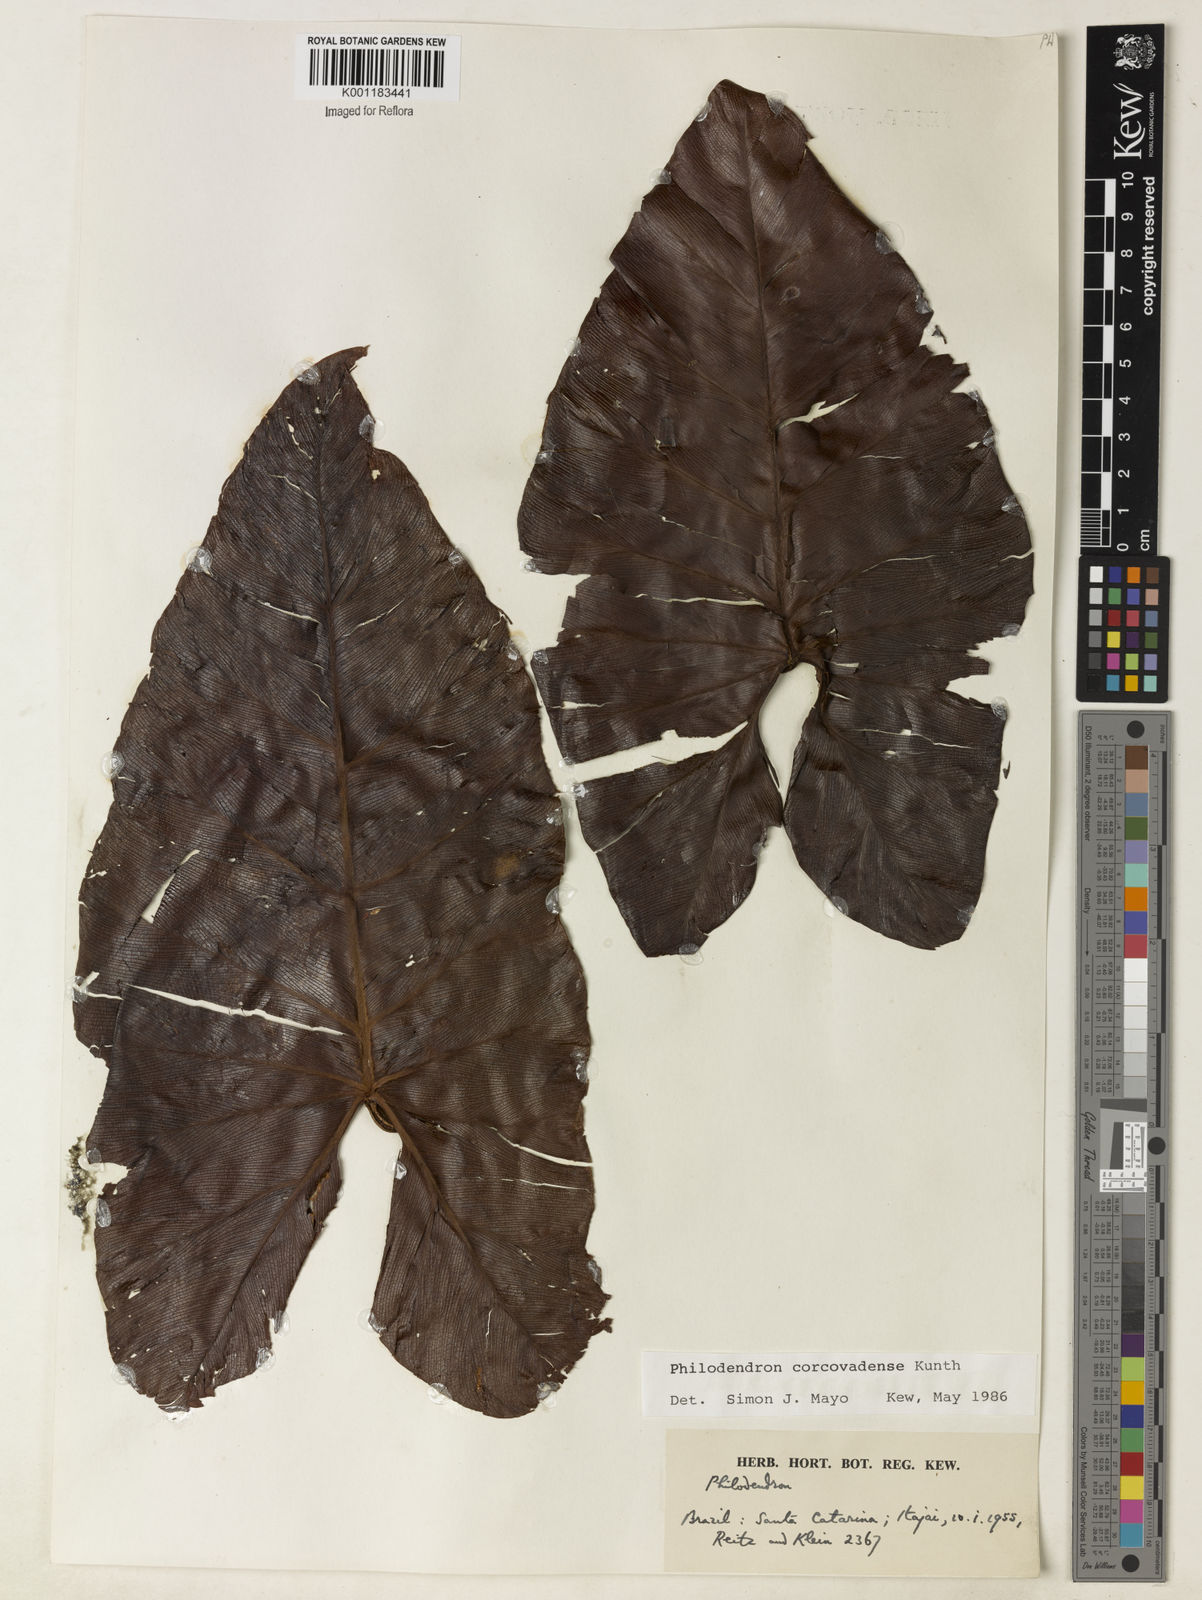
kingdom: Plantae
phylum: Tracheophyta
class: Liliopsida
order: Alismatales
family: Araceae
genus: Thaumatophyllum
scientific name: Thaumatophyllum corcovadense
